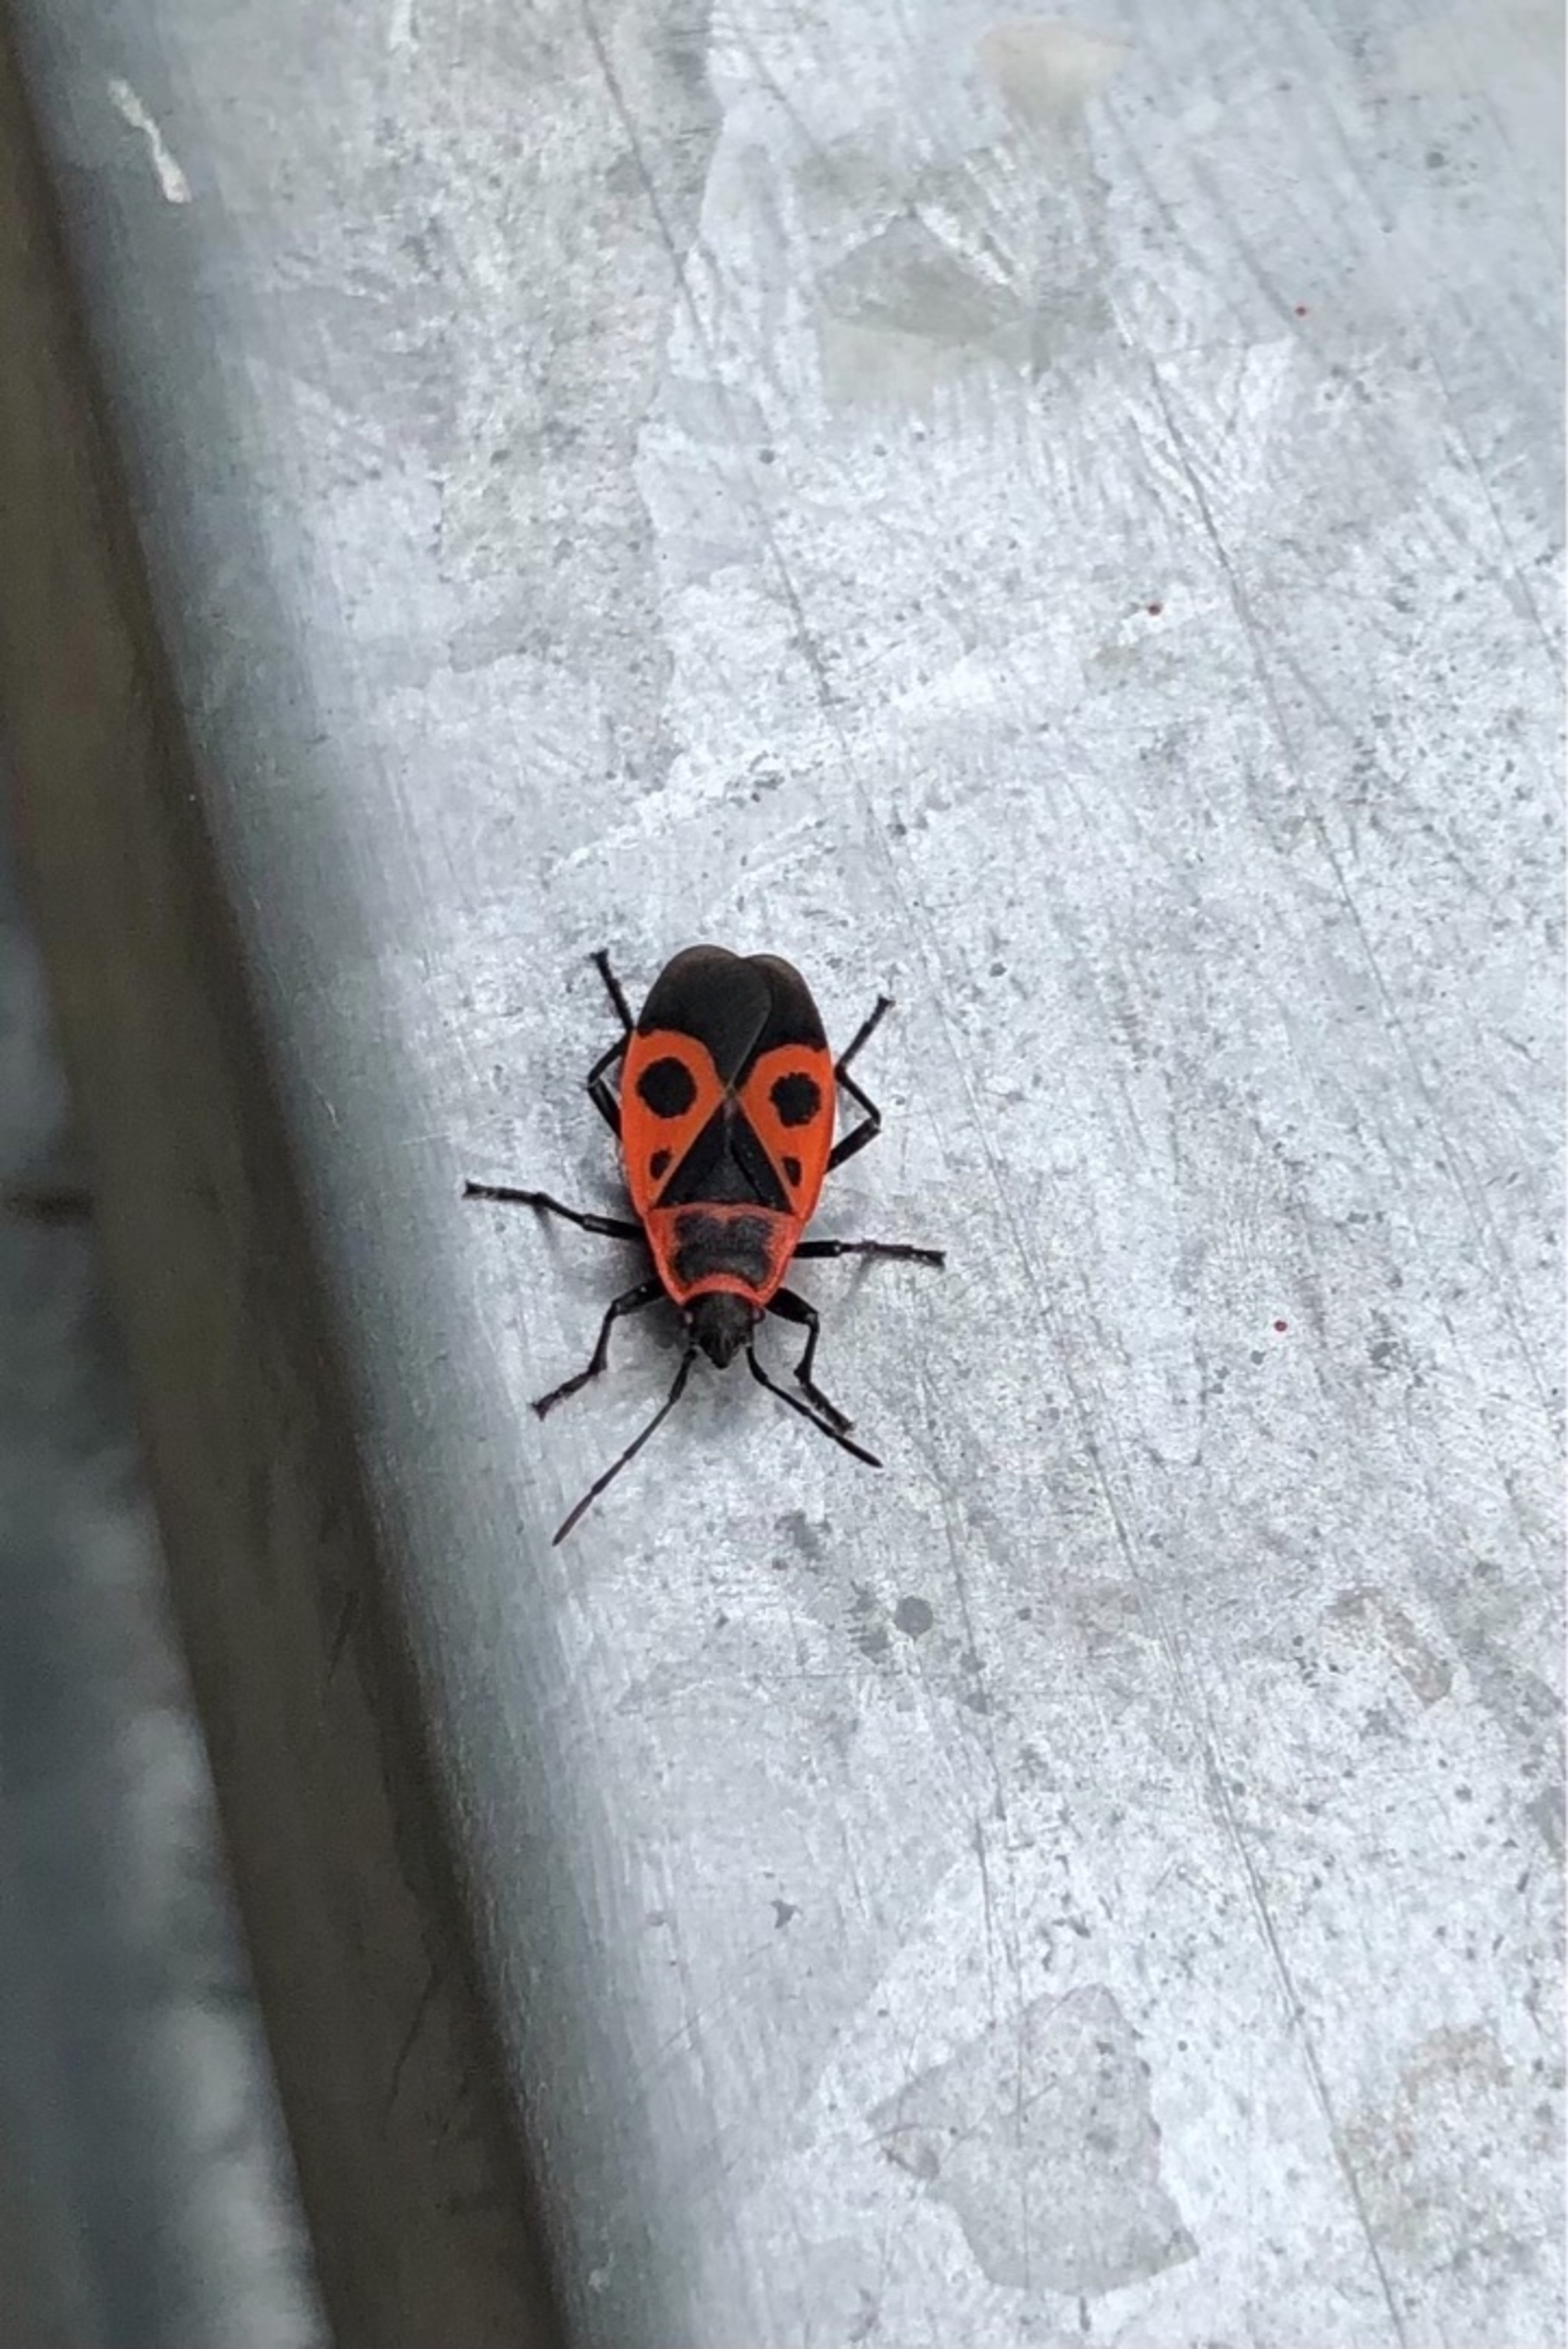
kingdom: Animalia
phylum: Arthropoda
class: Insecta
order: Hemiptera
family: Pyrrhocoridae
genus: Pyrrhocoris
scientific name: Pyrrhocoris apterus
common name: Ildtæge
